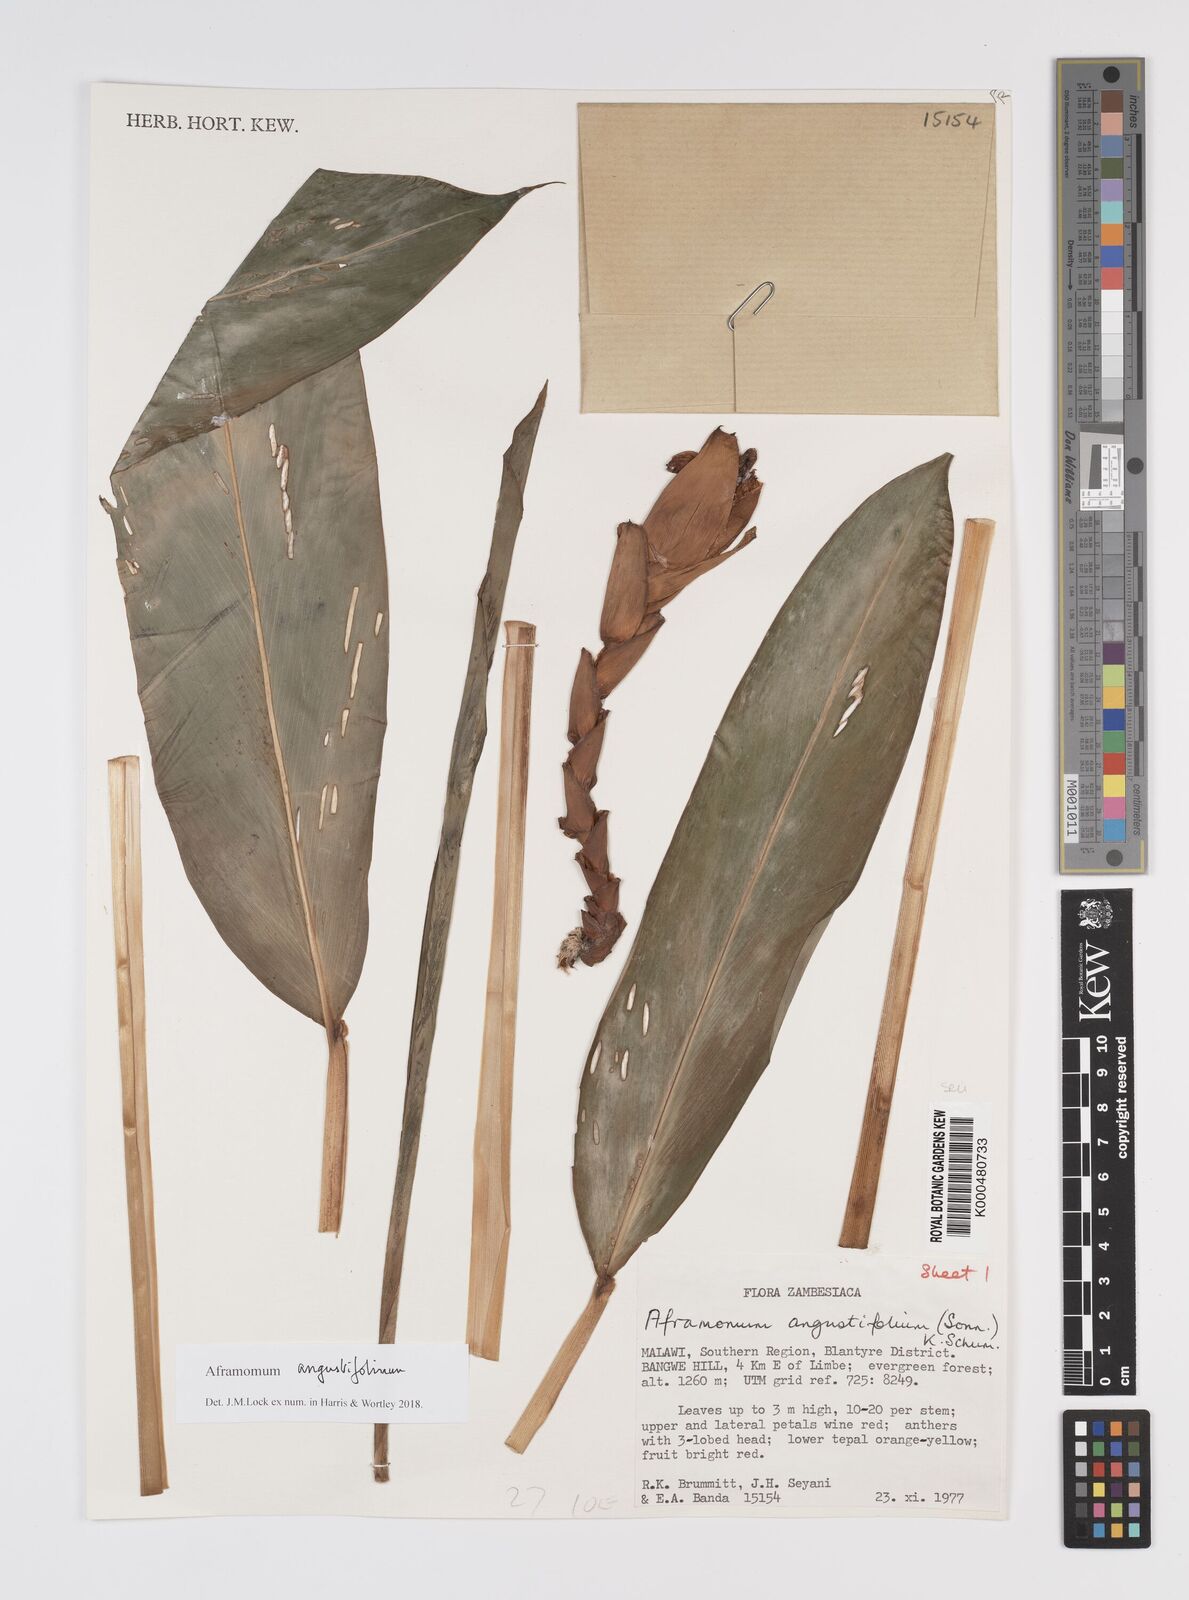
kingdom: Plantae
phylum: Tracheophyta
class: Liliopsida
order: Zingiberales
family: Zingiberaceae
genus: Aframomum
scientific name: Aframomum angustifolium
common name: Guinea grains
